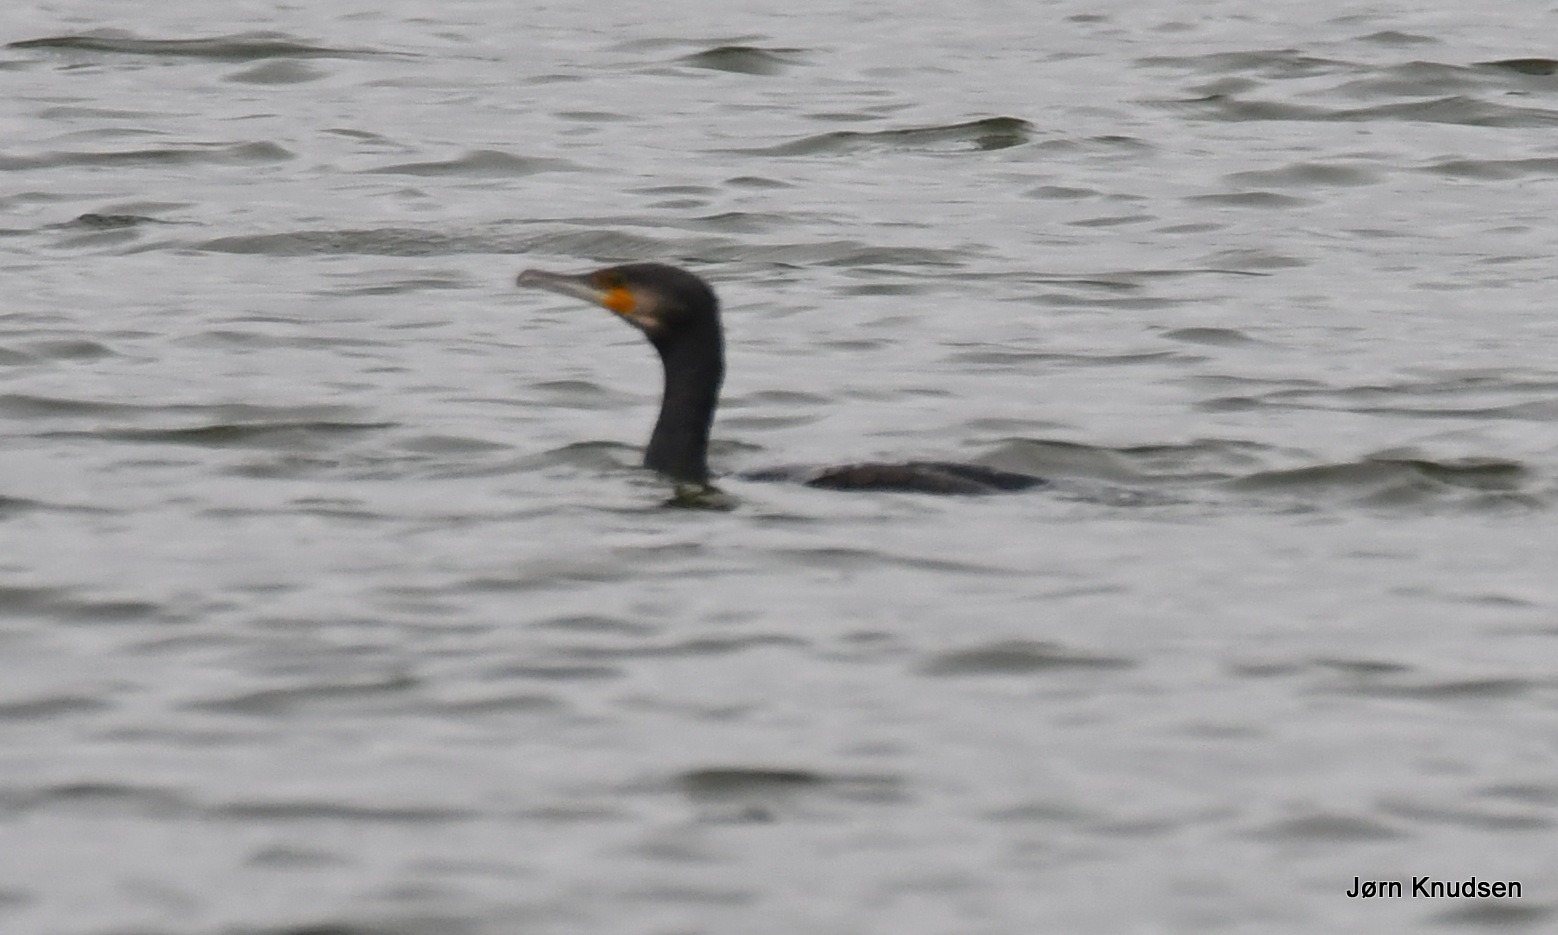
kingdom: Animalia
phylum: Chordata
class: Aves
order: Suliformes
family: Phalacrocoracidae
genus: Phalacrocorax
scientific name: Phalacrocorax carbo
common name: Skarv
